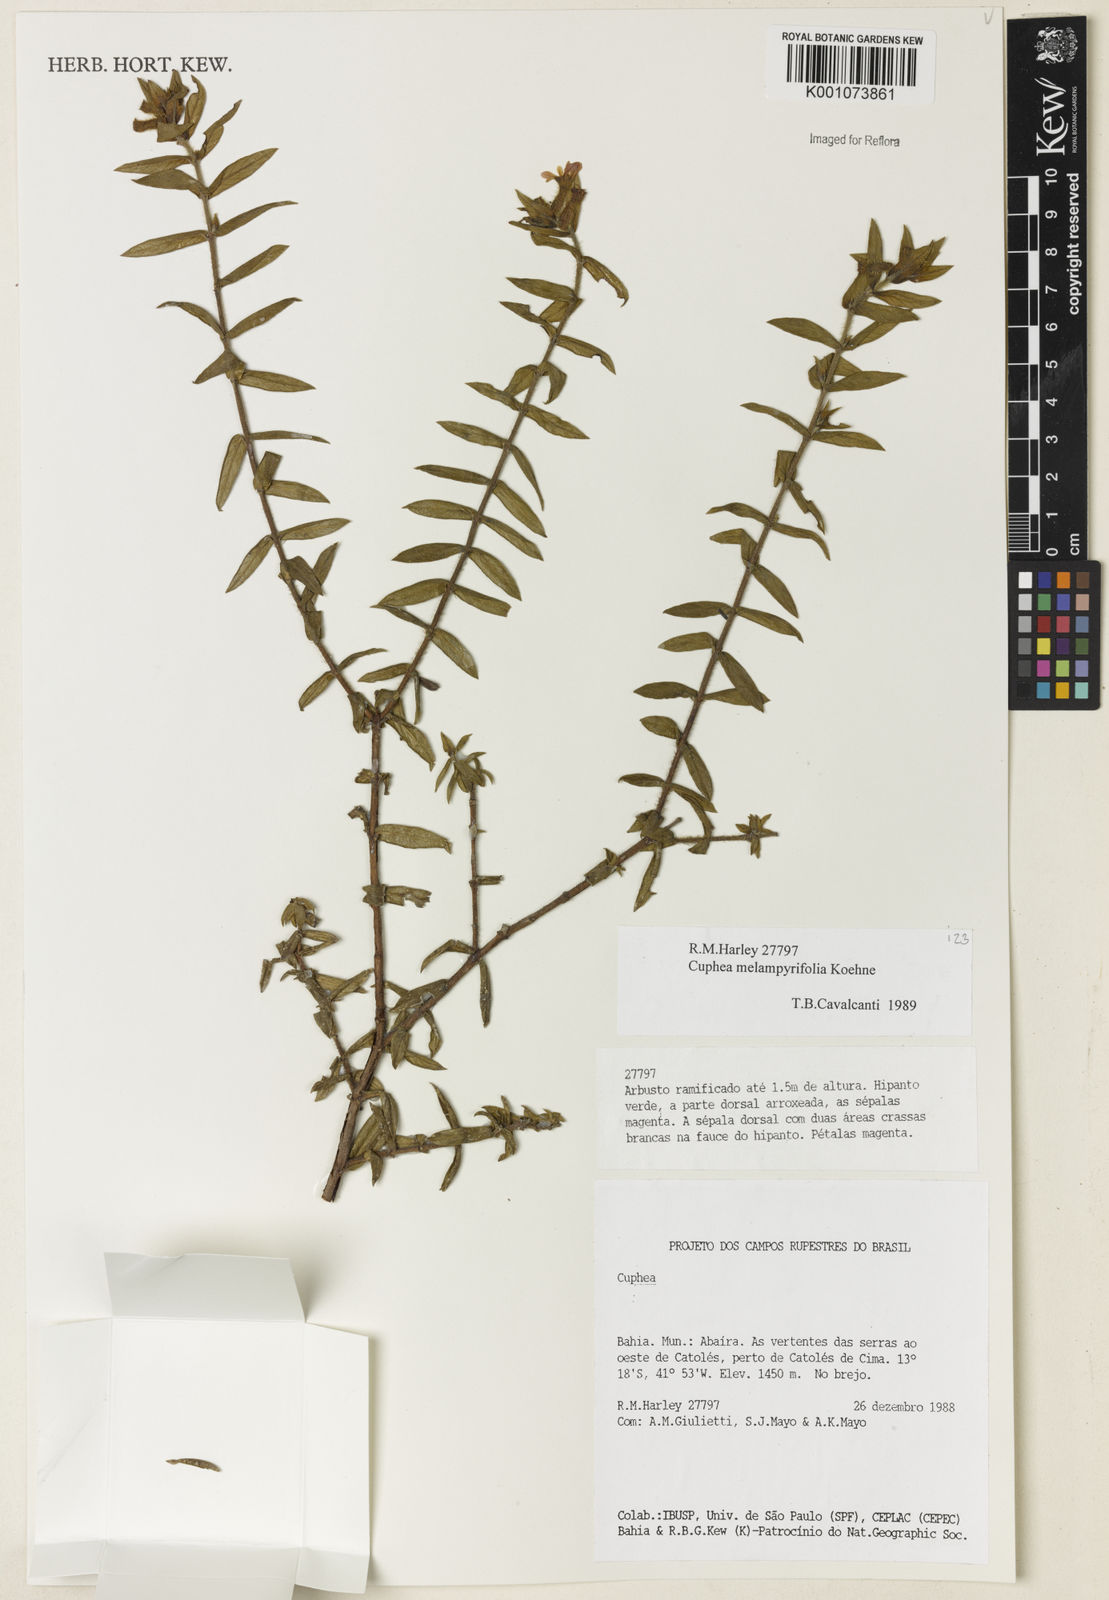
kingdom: Plantae
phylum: Tracheophyta
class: Magnoliopsida
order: Myrtales
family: Lythraceae
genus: Cuphea
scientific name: Cuphea sessiliflora
